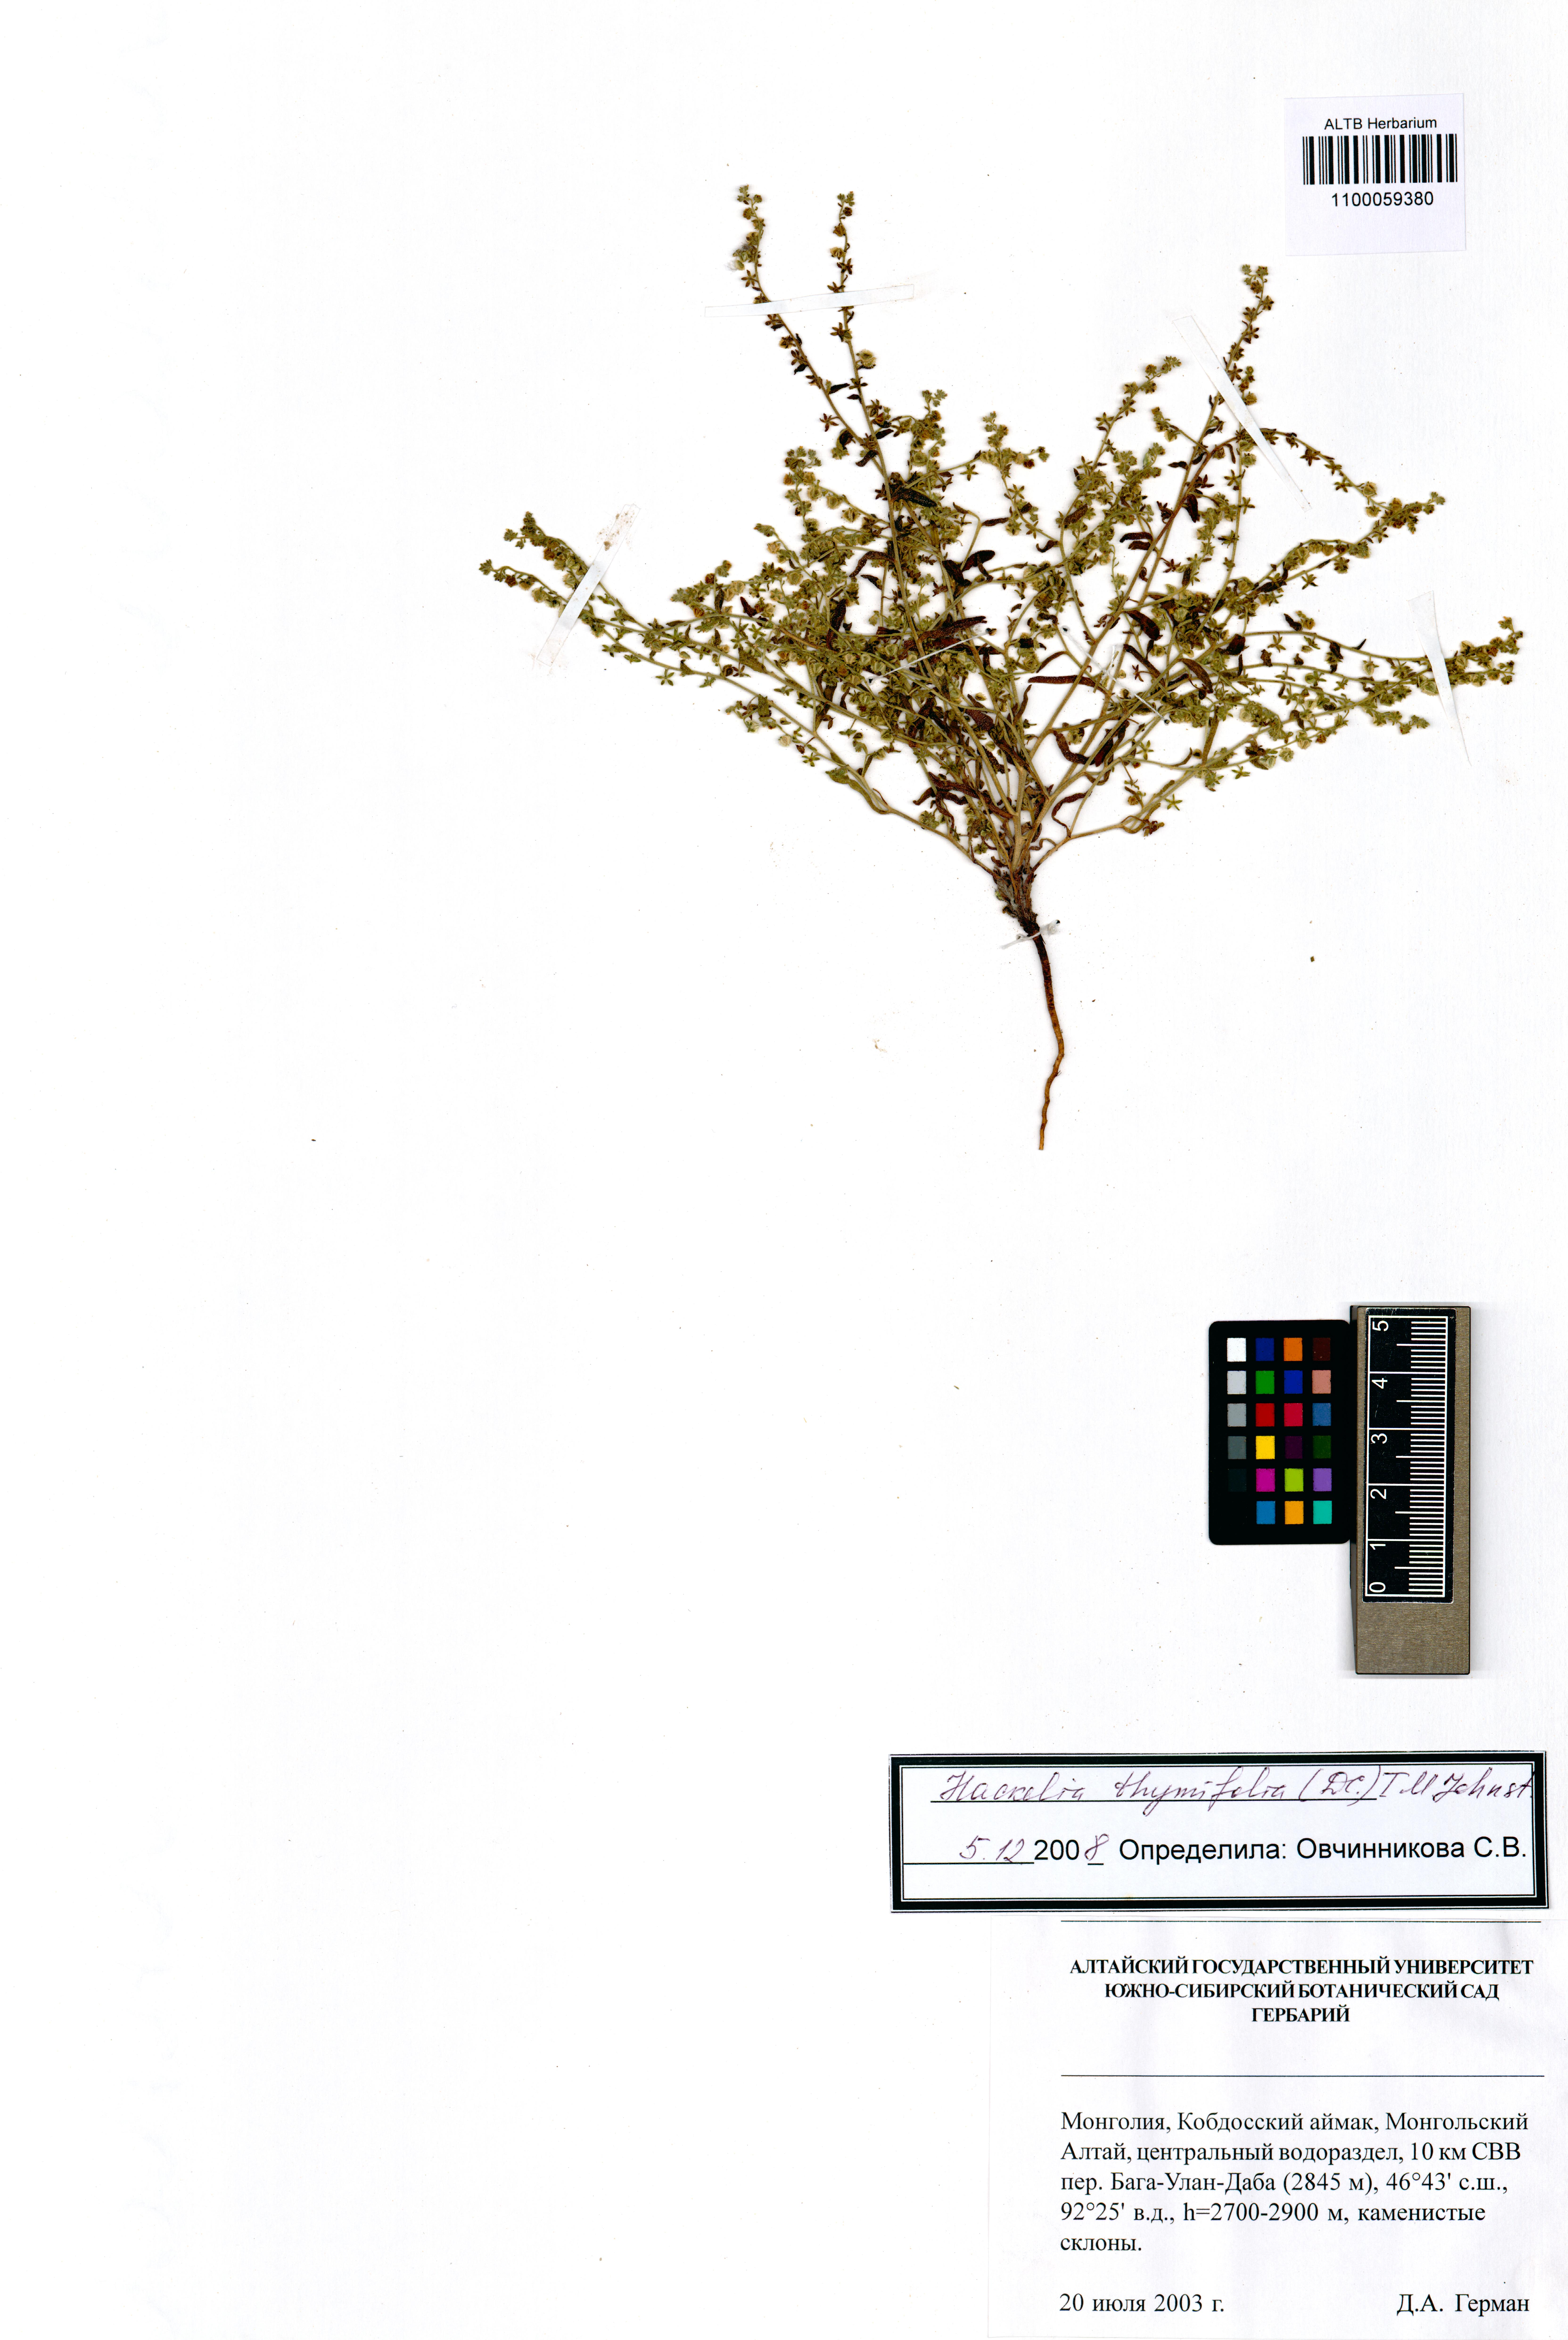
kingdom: Plantae
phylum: Tracheophyta
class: Magnoliopsida
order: Boraginales
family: Boraginaceae
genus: Eritrichium
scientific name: Eritrichium thymifolium
